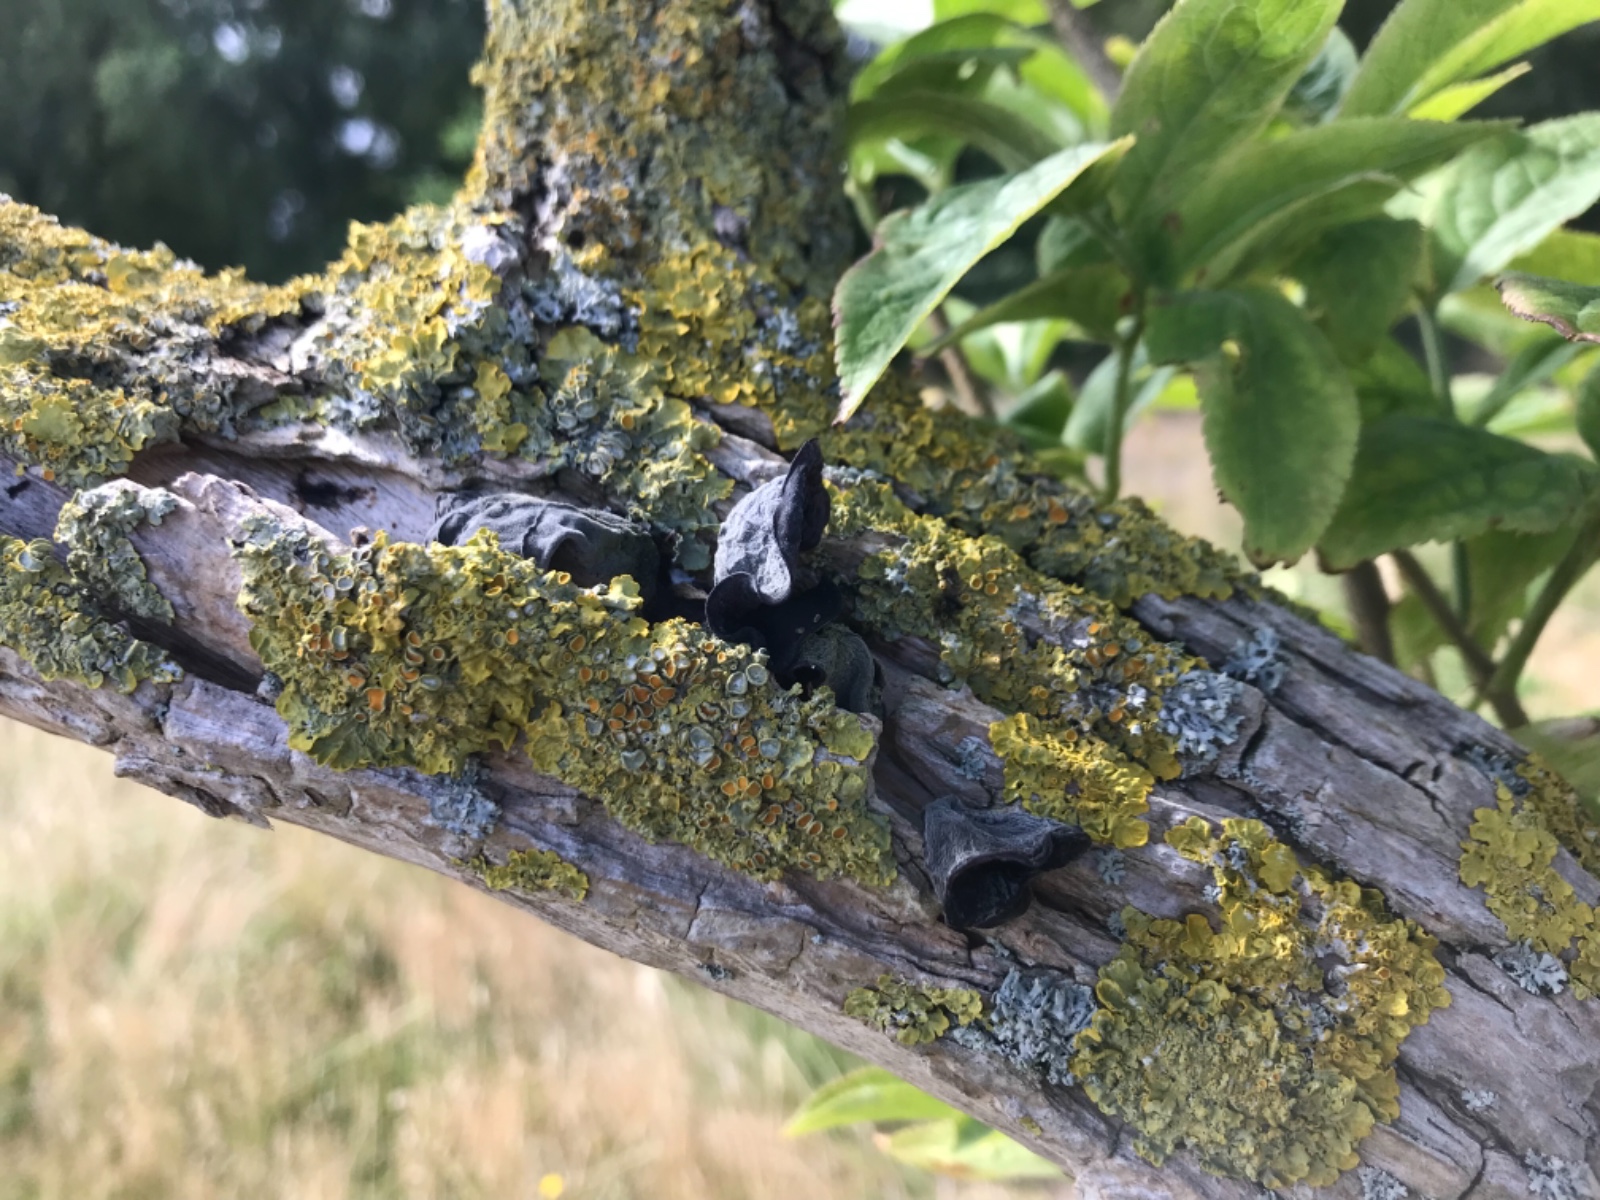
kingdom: Fungi
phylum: Basidiomycota
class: Agaricomycetes
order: Auriculariales
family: Auriculariaceae
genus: Auricularia
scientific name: Auricularia auricula-judae
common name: almindelig judasøre
